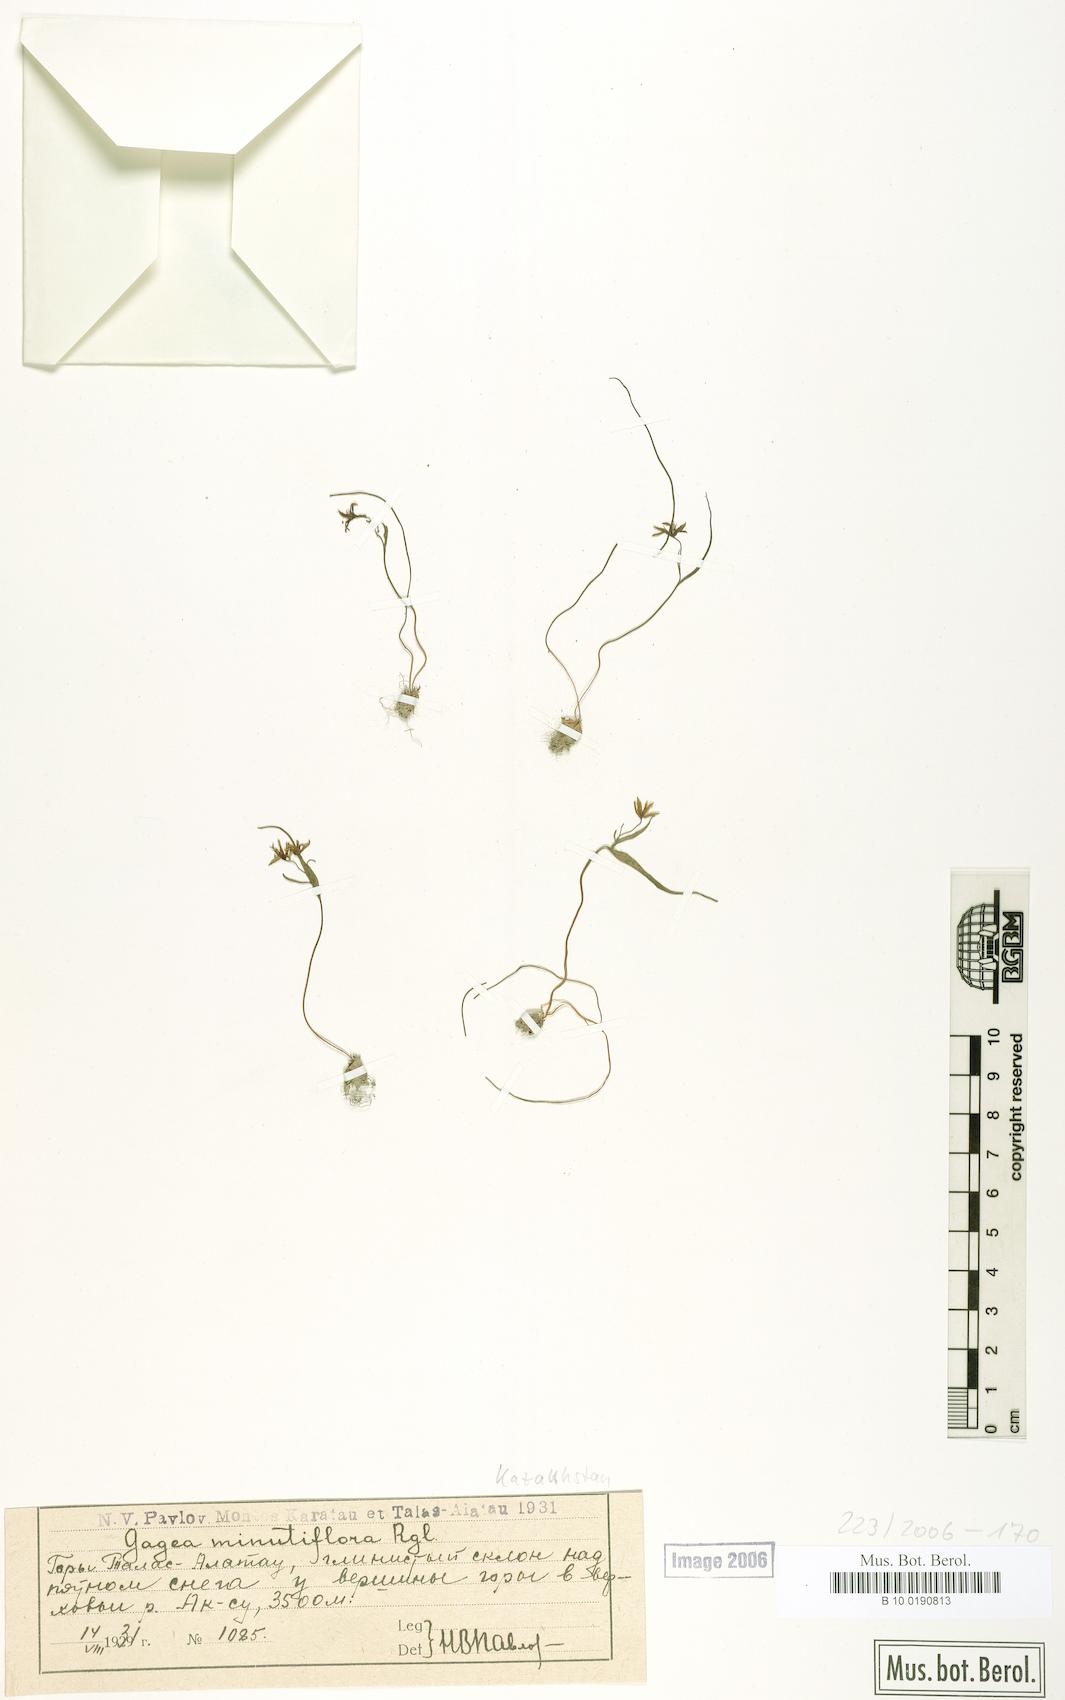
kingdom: Plantae
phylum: Tracheophyta
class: Liliopsida
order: Liliales
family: Liliaceae
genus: Gagea
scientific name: Gagea minutiflora
